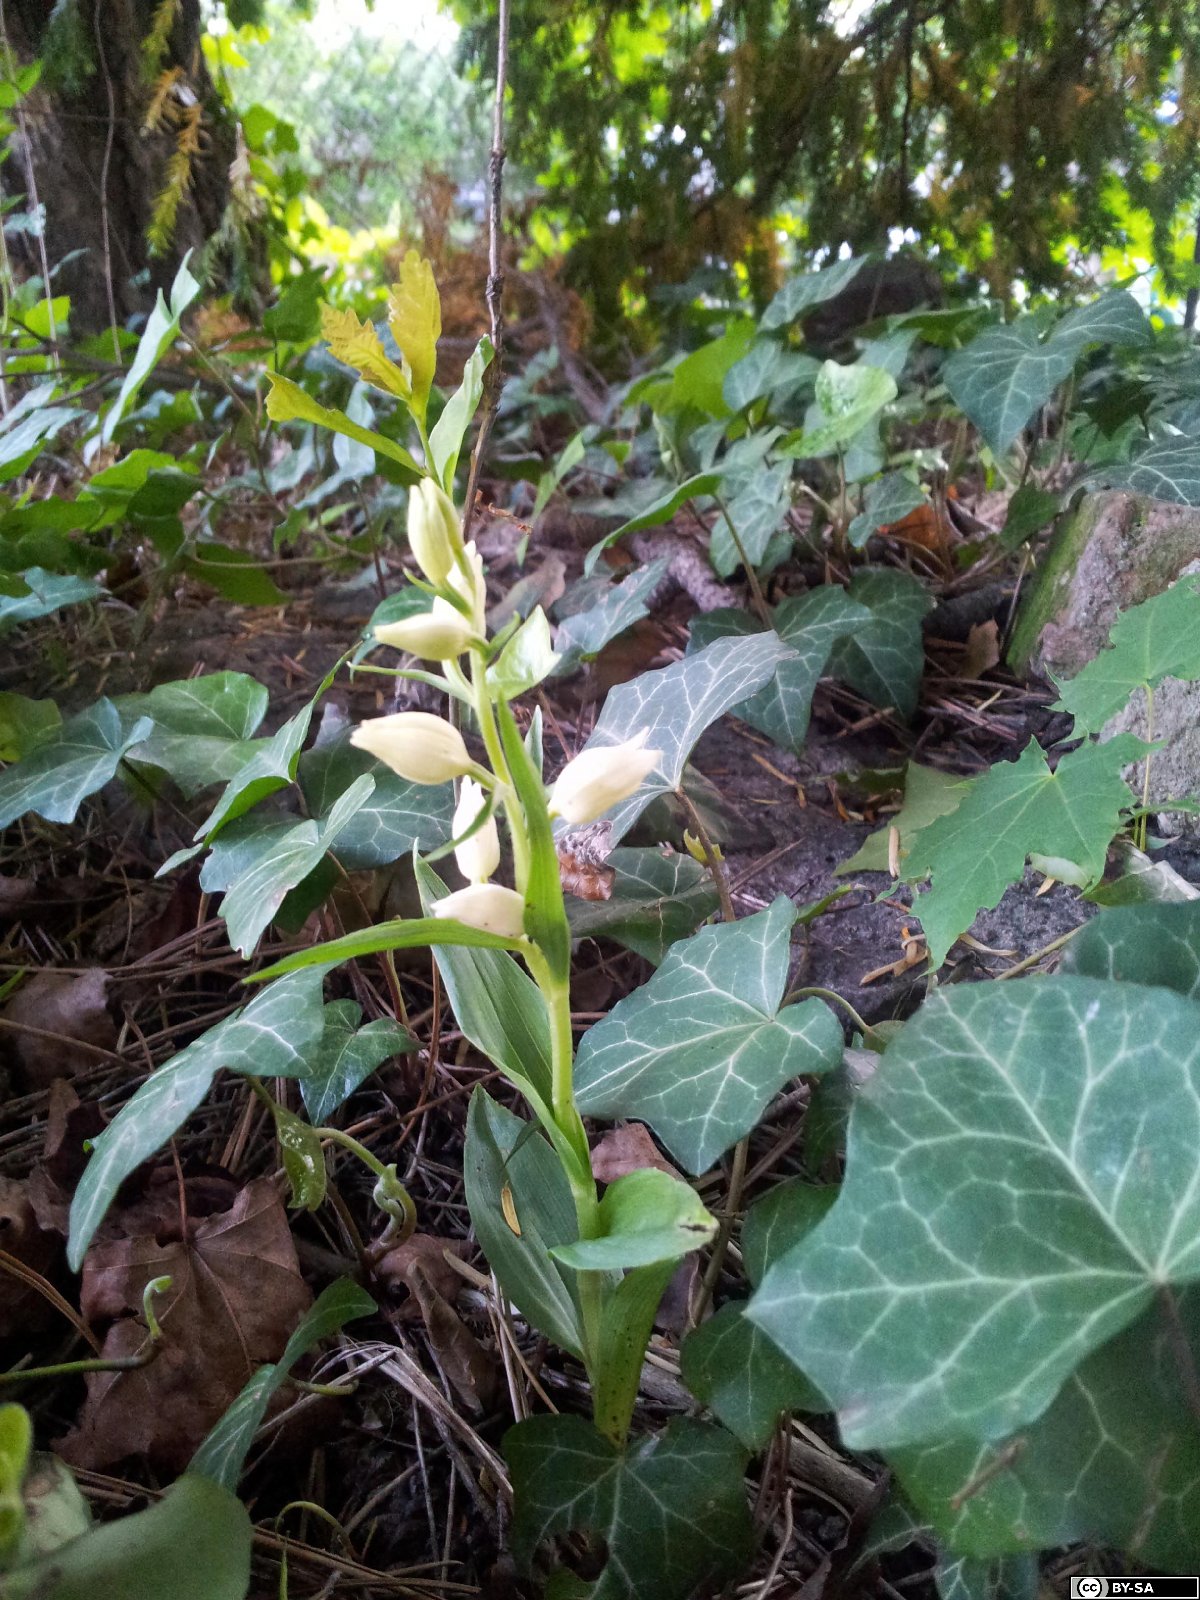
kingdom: Plantae
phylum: Tracheophyta
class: Liliopsida
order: Asparagales
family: Orchidaceae
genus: Cephalanthera
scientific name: Cephalanthera damasonium
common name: White helleborine
